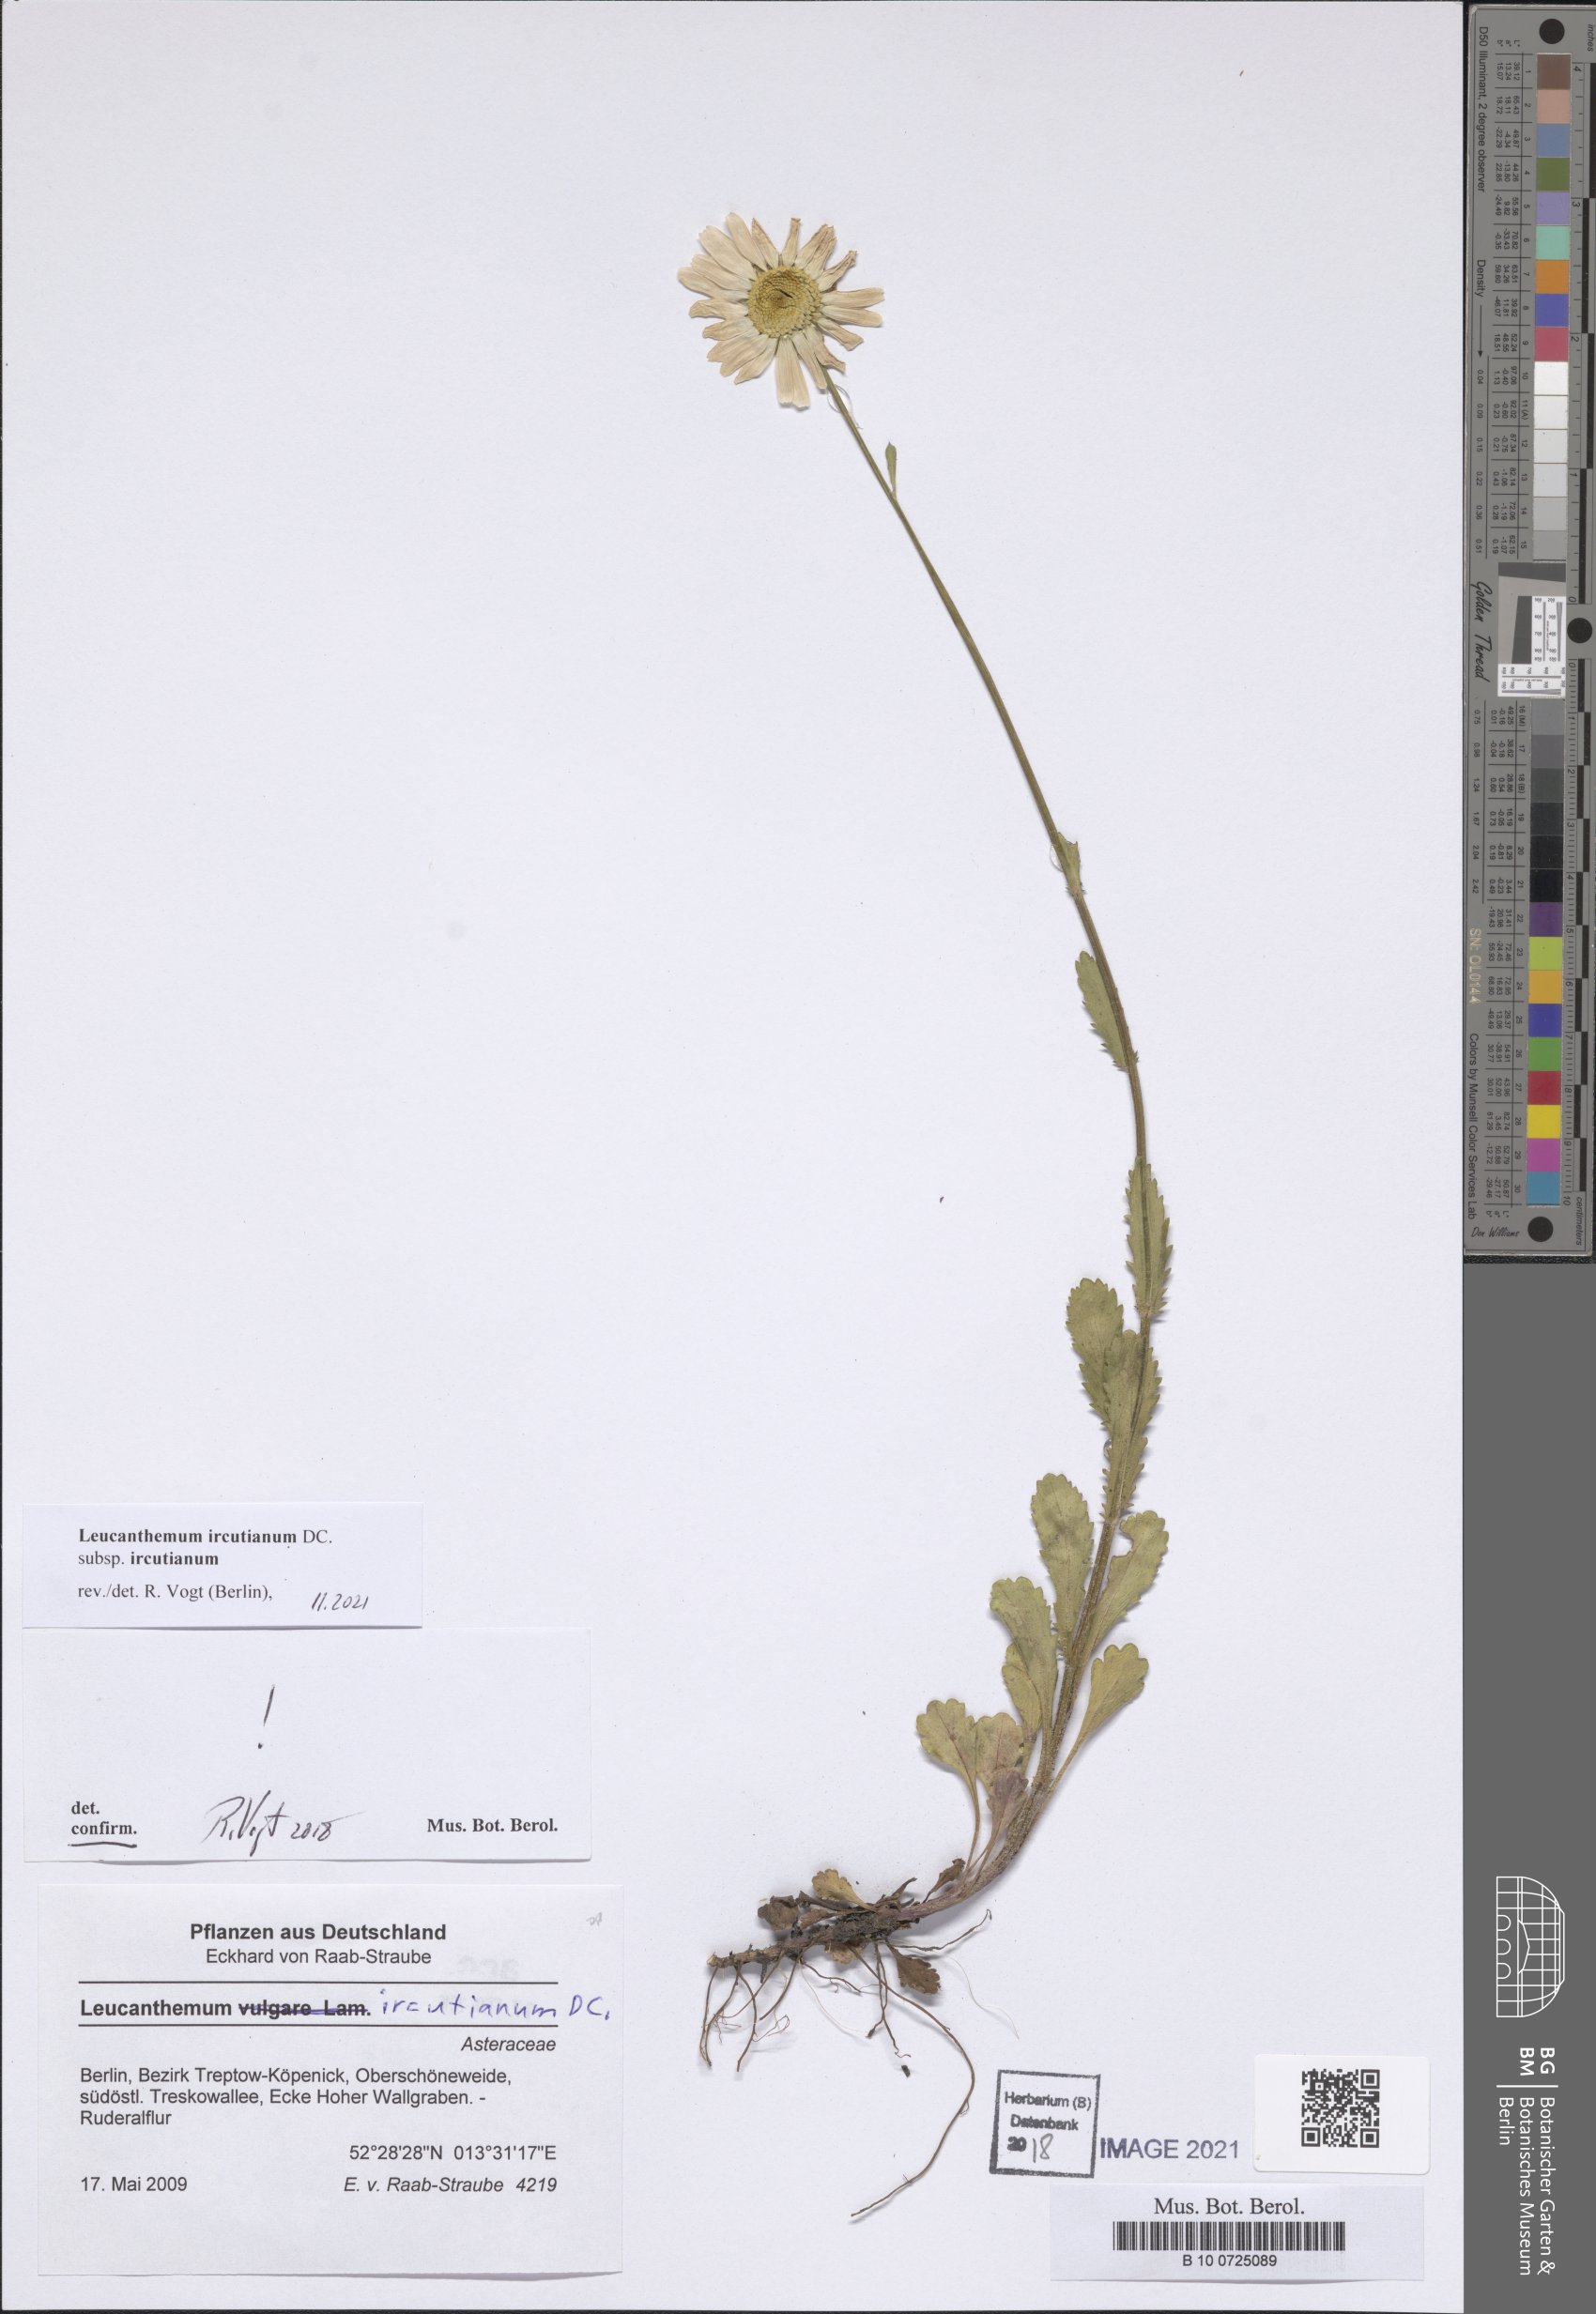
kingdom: Plantae
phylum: Tracheophyta
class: Magnoliopsida
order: Asterales
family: Asteraceae
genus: Leucanthemum
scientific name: Leucanthemum ircutianum
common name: Daisy
